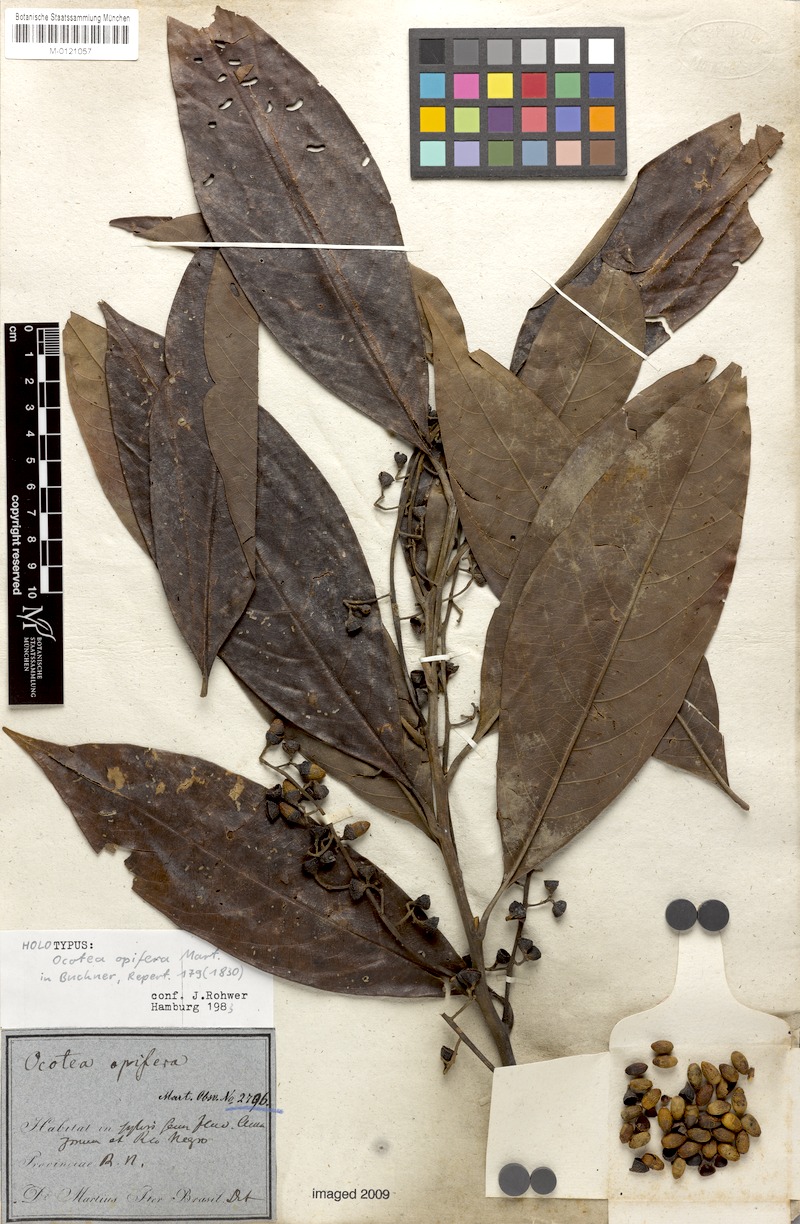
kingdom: Plantae
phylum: Tracheophyta
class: Magnoliopsida
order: Laurales
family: Lauraceae
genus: Mespilodaphne
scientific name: Mespilodaphne opifera
